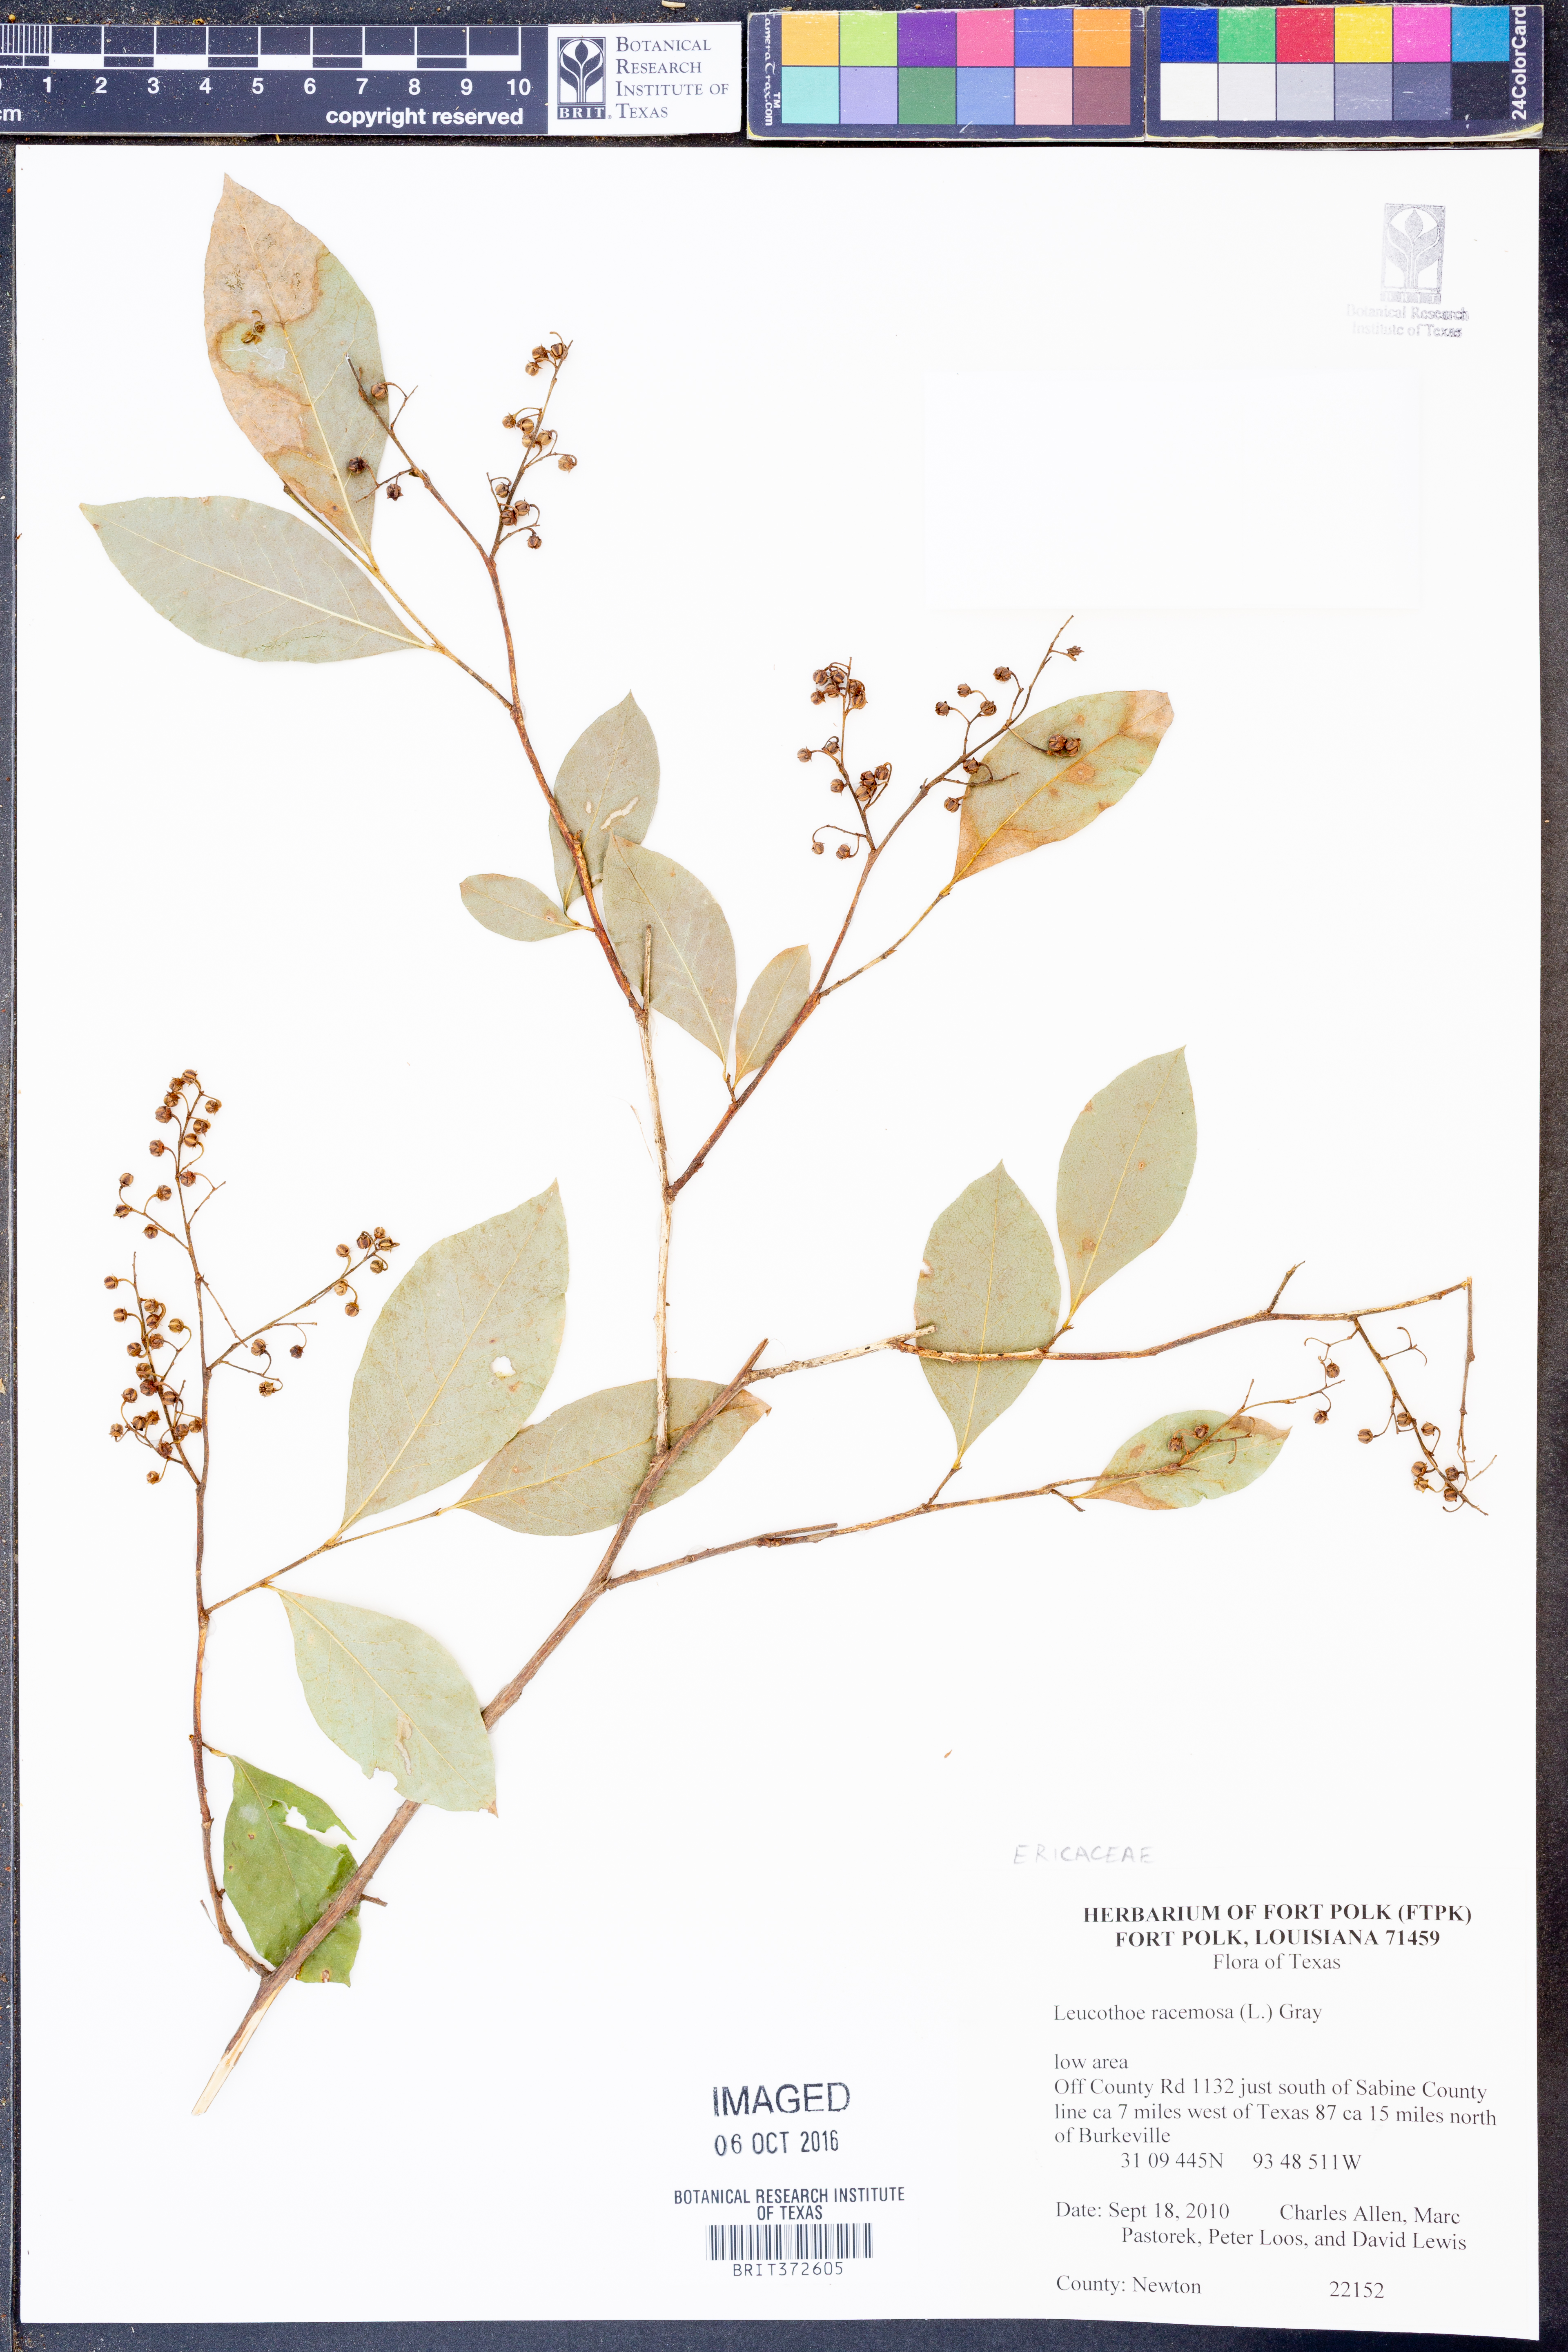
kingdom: Plantae
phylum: Tracheophyta
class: Magnoliopsida
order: Ericales
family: Ericaceae
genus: Lyonia
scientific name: Lyonia ligustrina
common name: Maleberry
